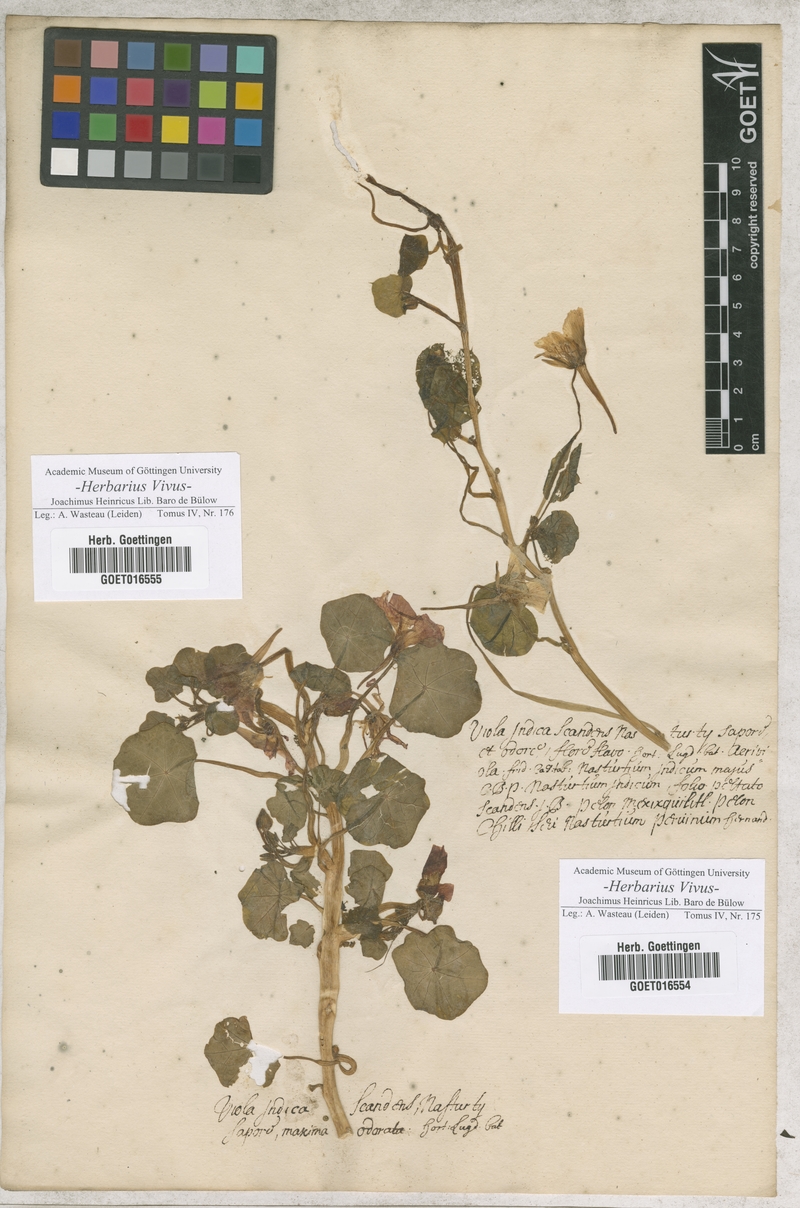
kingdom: Plantae
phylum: Tracheophyta
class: Magnoliopsida
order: Brassicales
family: Tropaeolaceae
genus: Tropaeolum
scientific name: Tropaeolum majus
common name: Nasturtium
